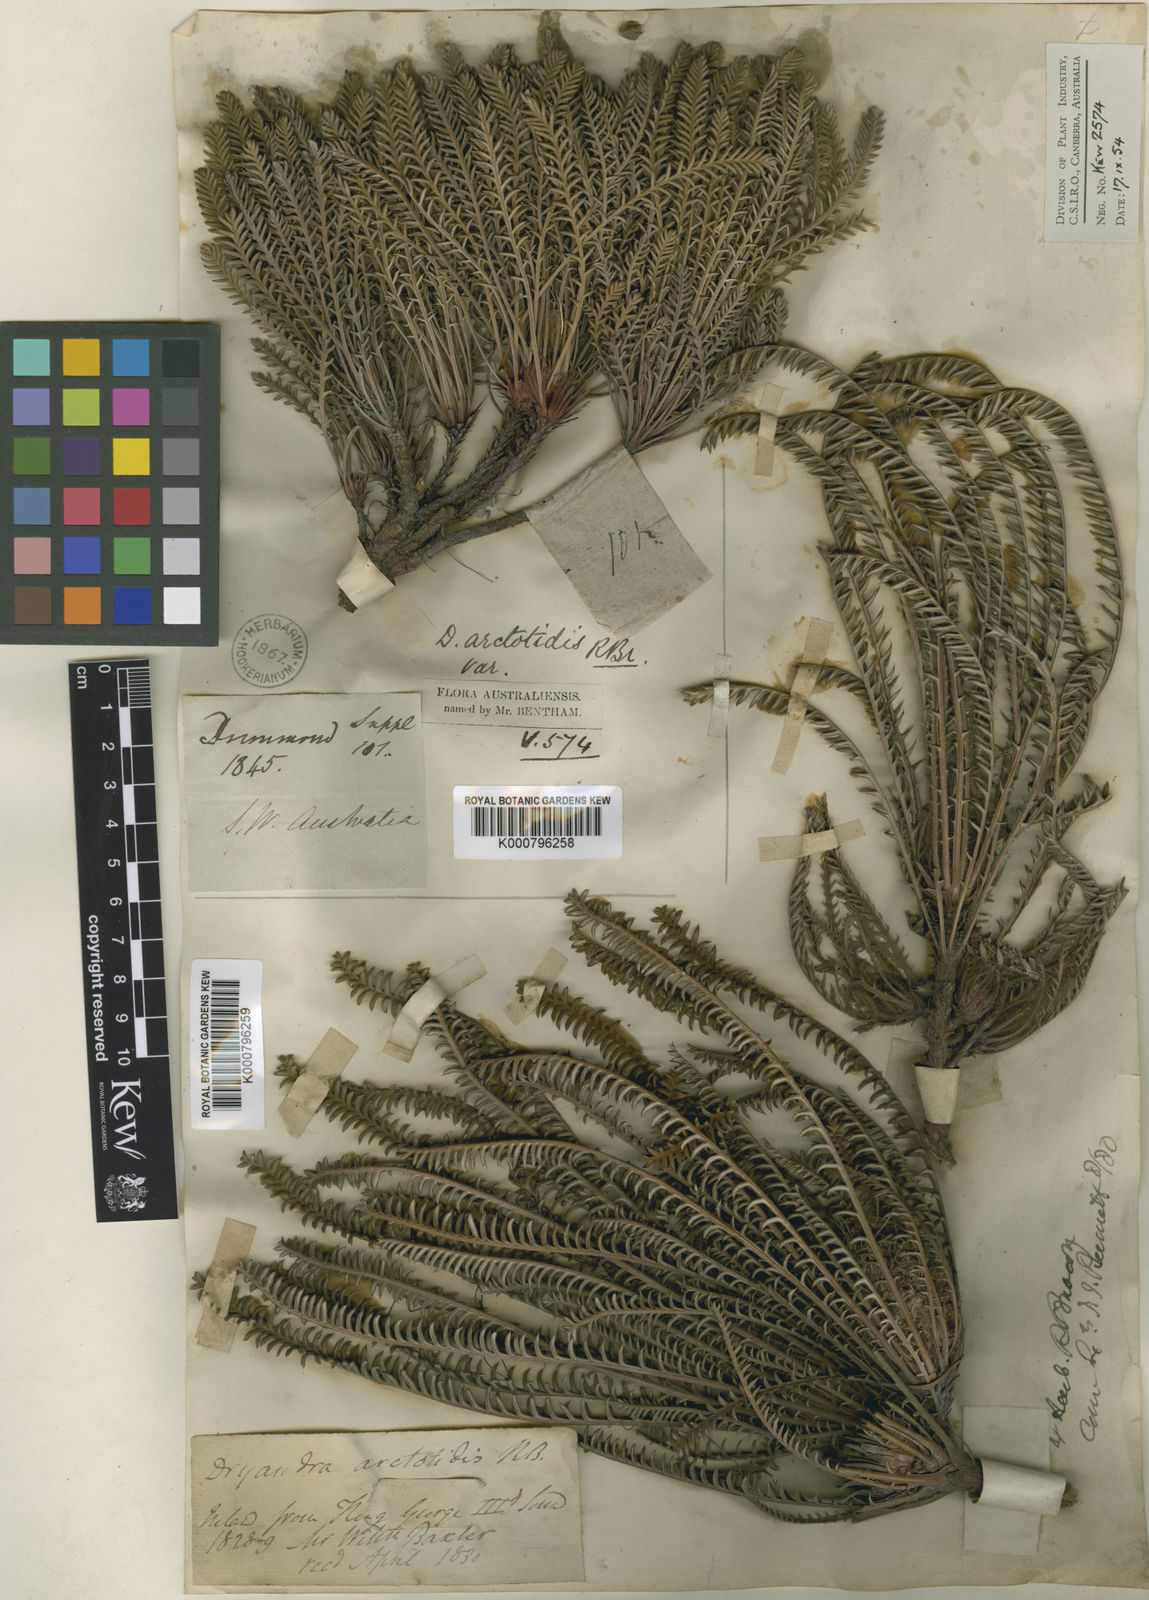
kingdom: Plantae
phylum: Tracheophyta
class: Magnoliopsida
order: Proteales
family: Proteaceae
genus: Banksia
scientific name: Banksia arctotidis
